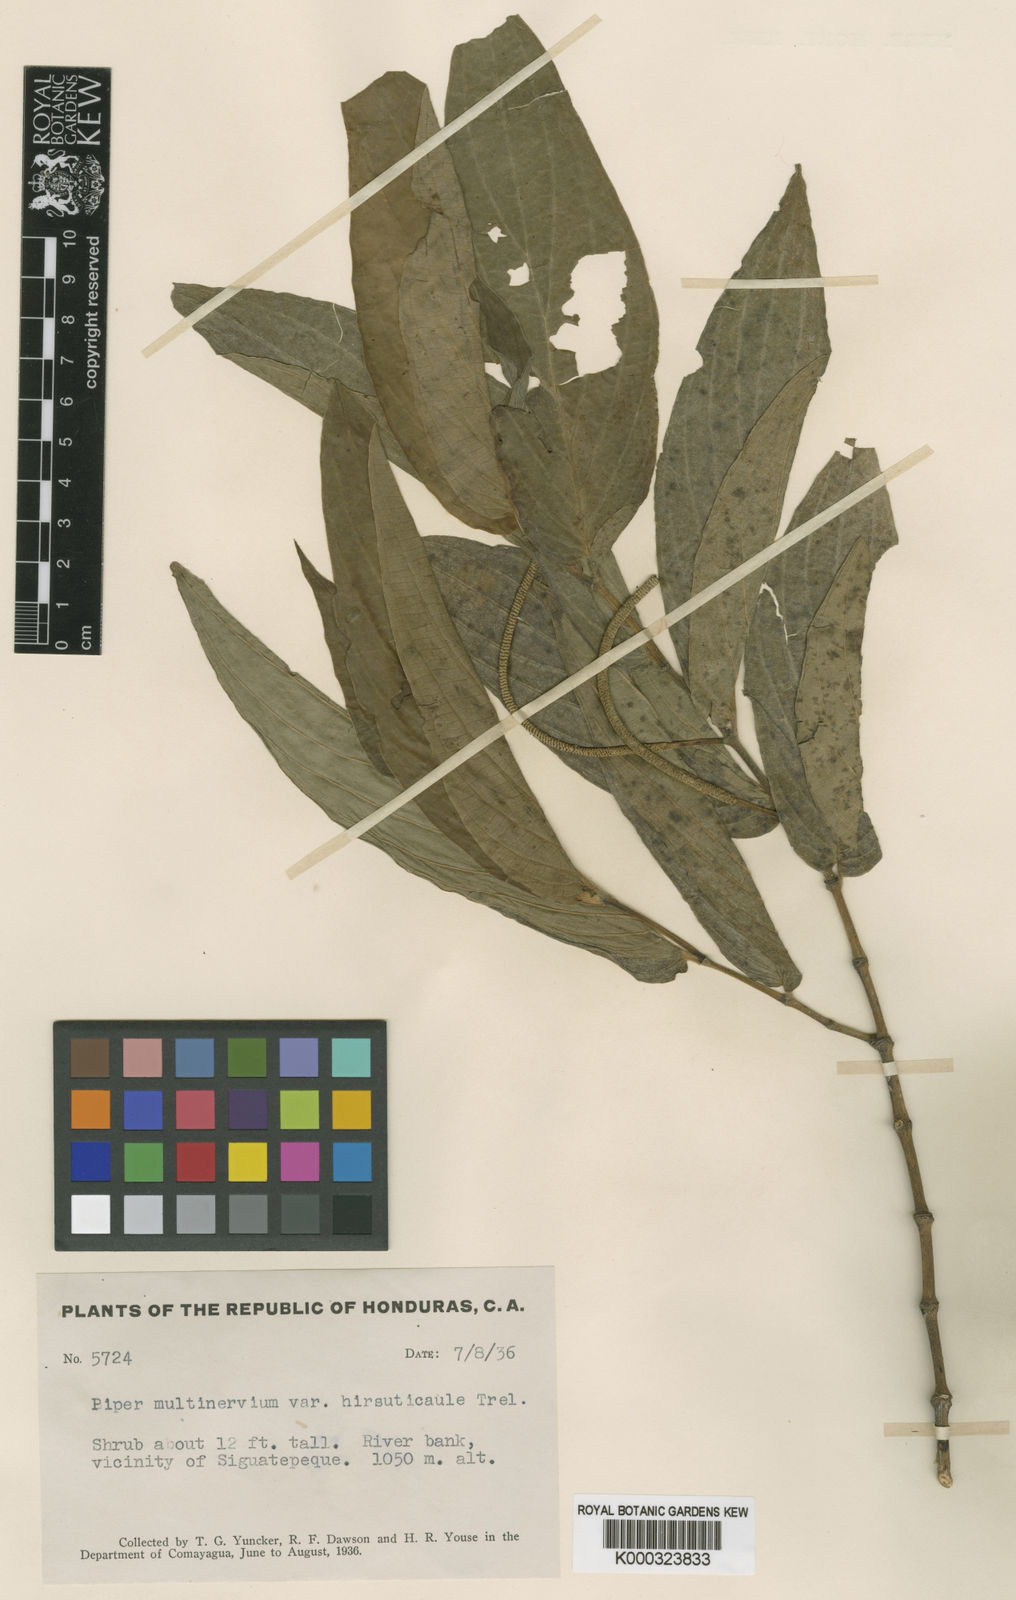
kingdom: Plantae
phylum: Tracheophyta
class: Magnoliopsida
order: Piperales
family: Piperaceae
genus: Piper
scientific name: Piper aduncum
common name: Spiked pepper
